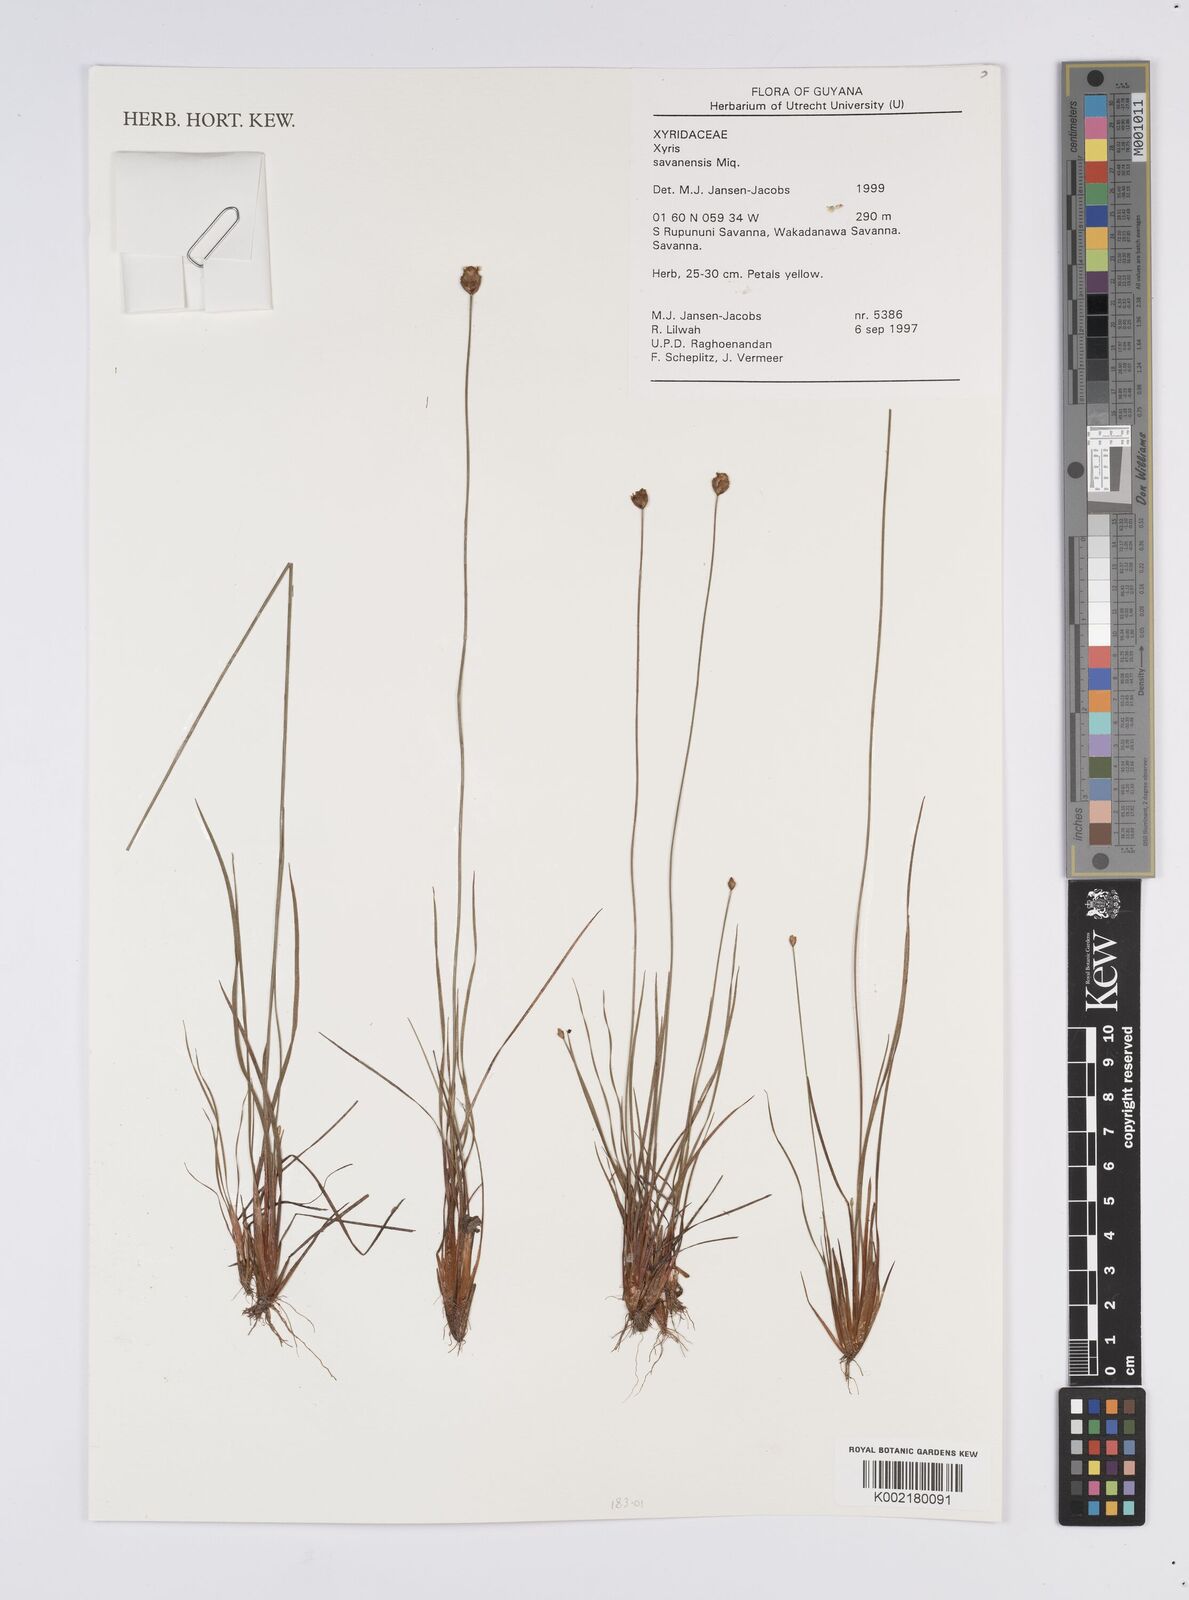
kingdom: Plantae
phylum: Tracheophyta
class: Liliopsida
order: Poales
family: Xyridaceae
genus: Xyris
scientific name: Xyris
